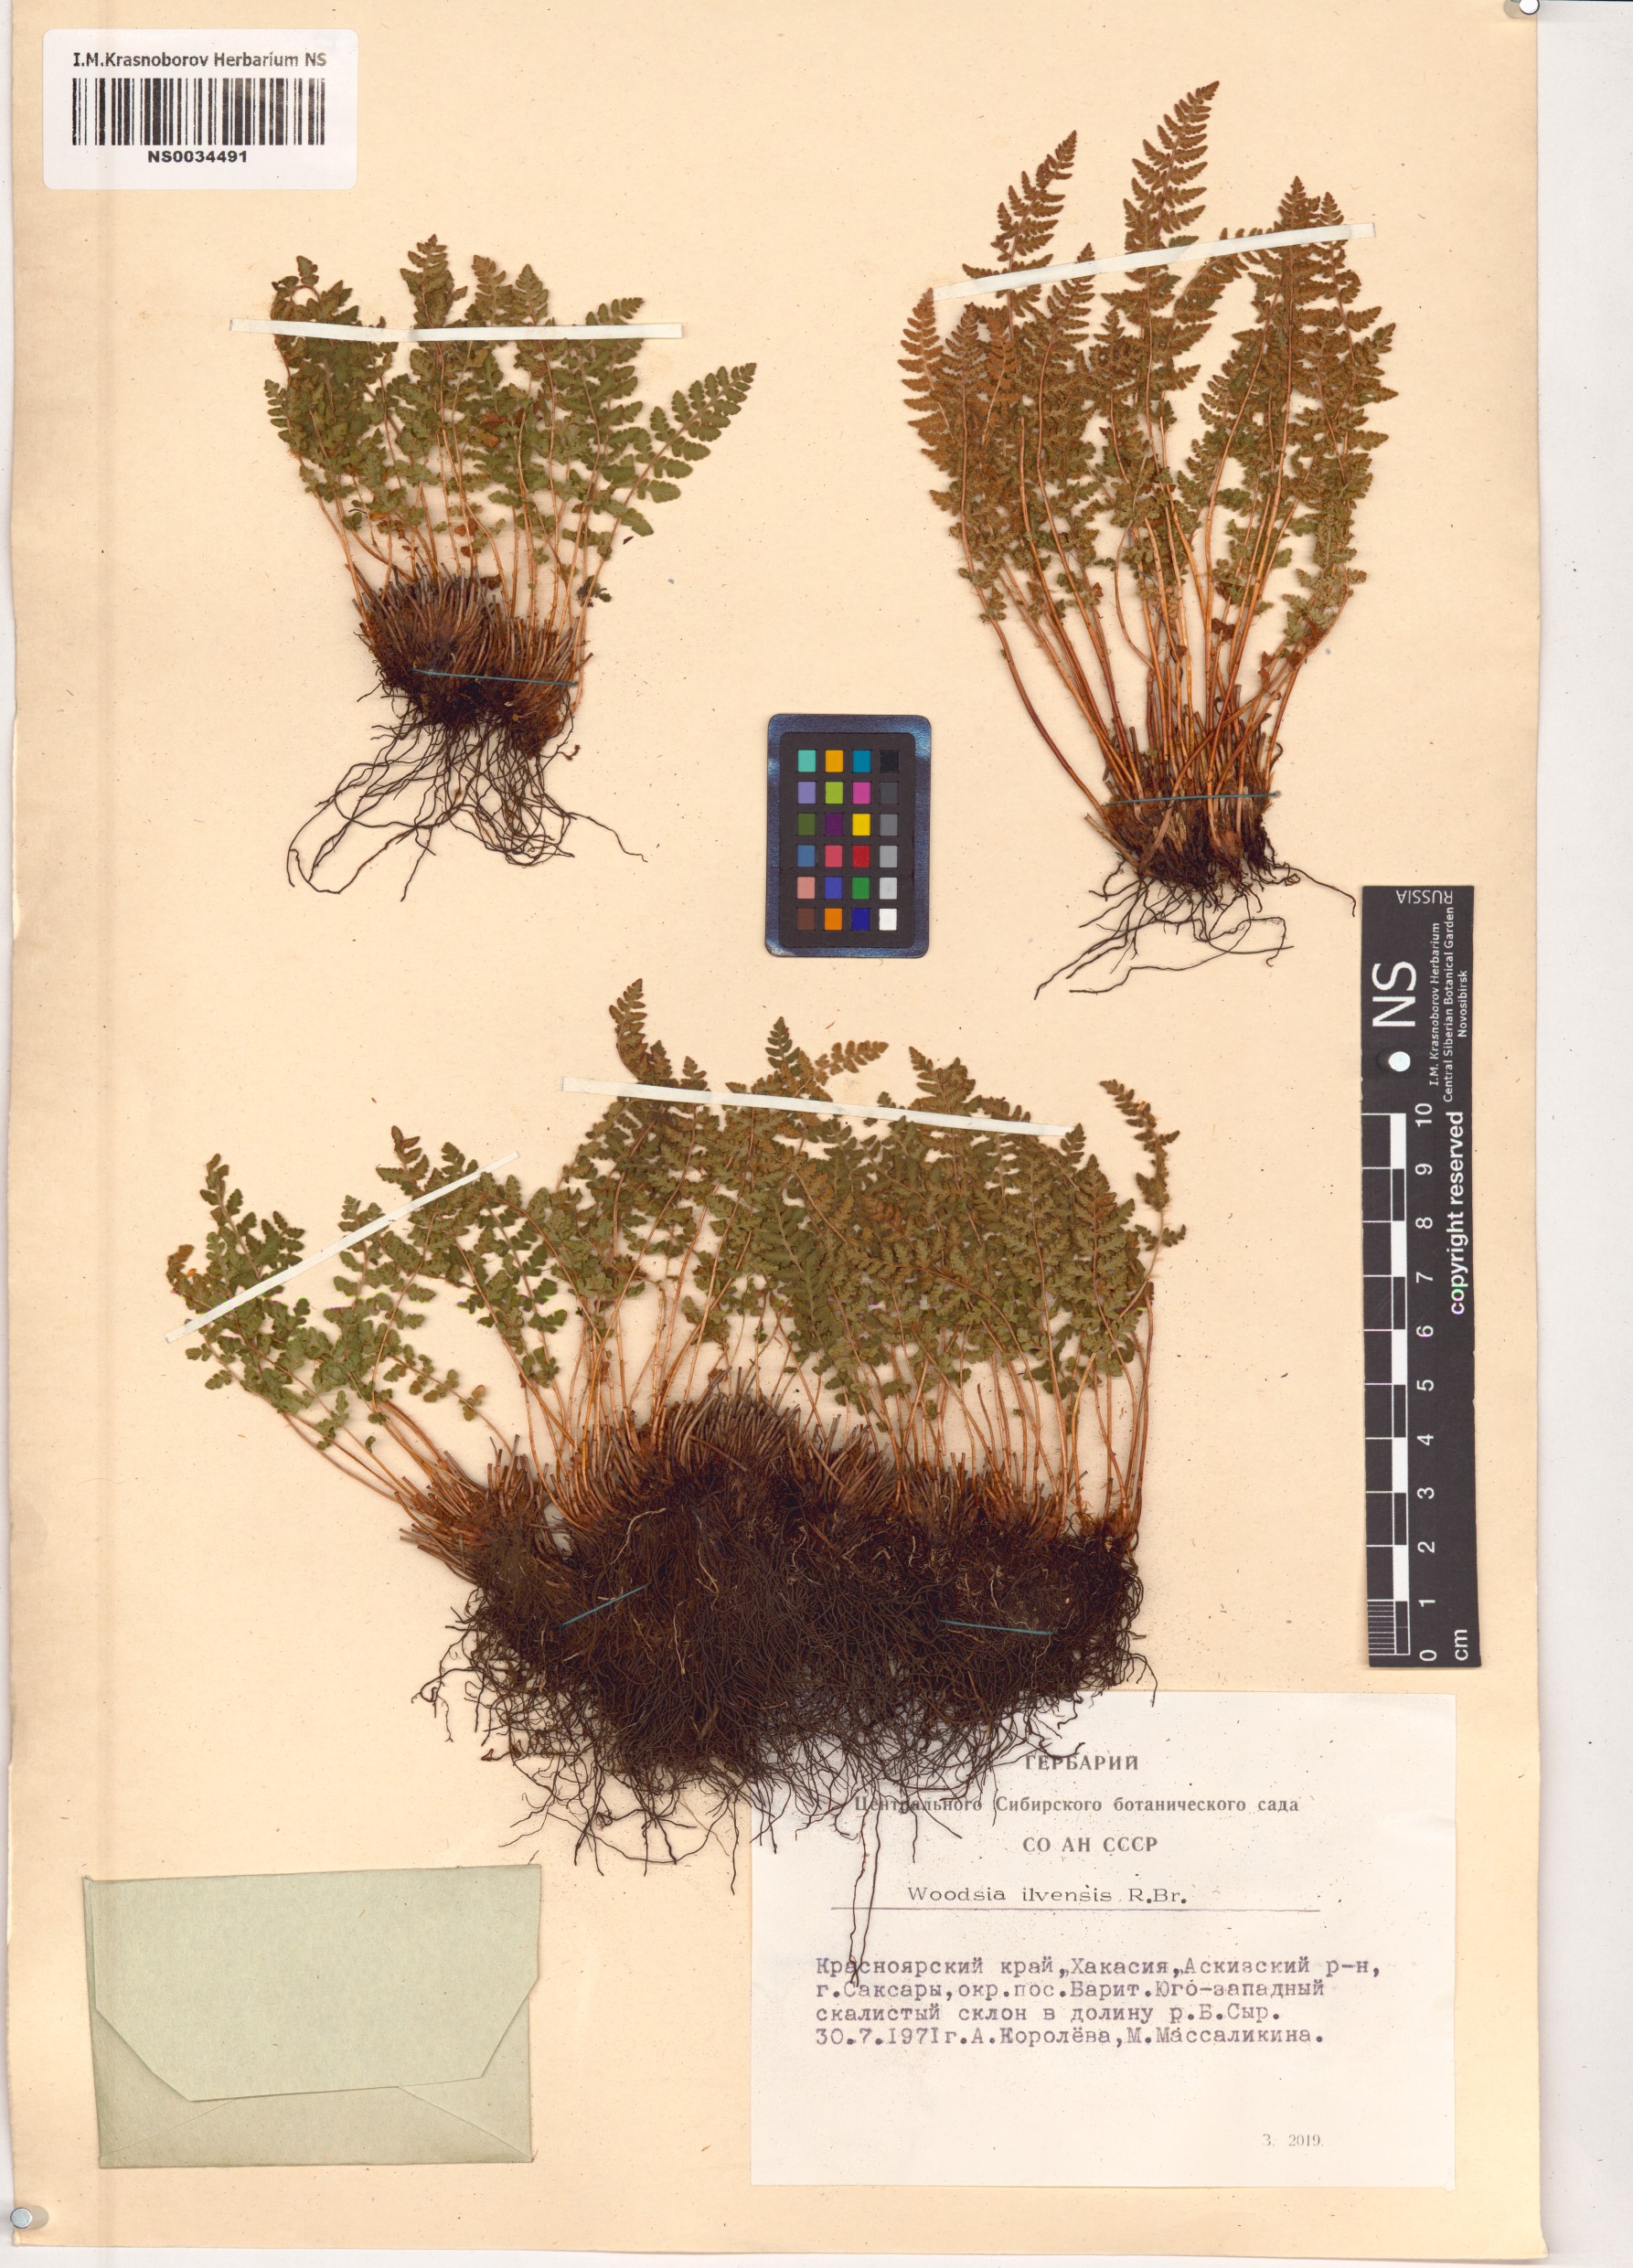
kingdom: Plantae
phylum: Tracheophyta
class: Polypodiopsida
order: Polypodiales
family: Woodsiaceae
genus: Woodsia
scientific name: Woodsia ilvensis
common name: Fragrant woodsia
